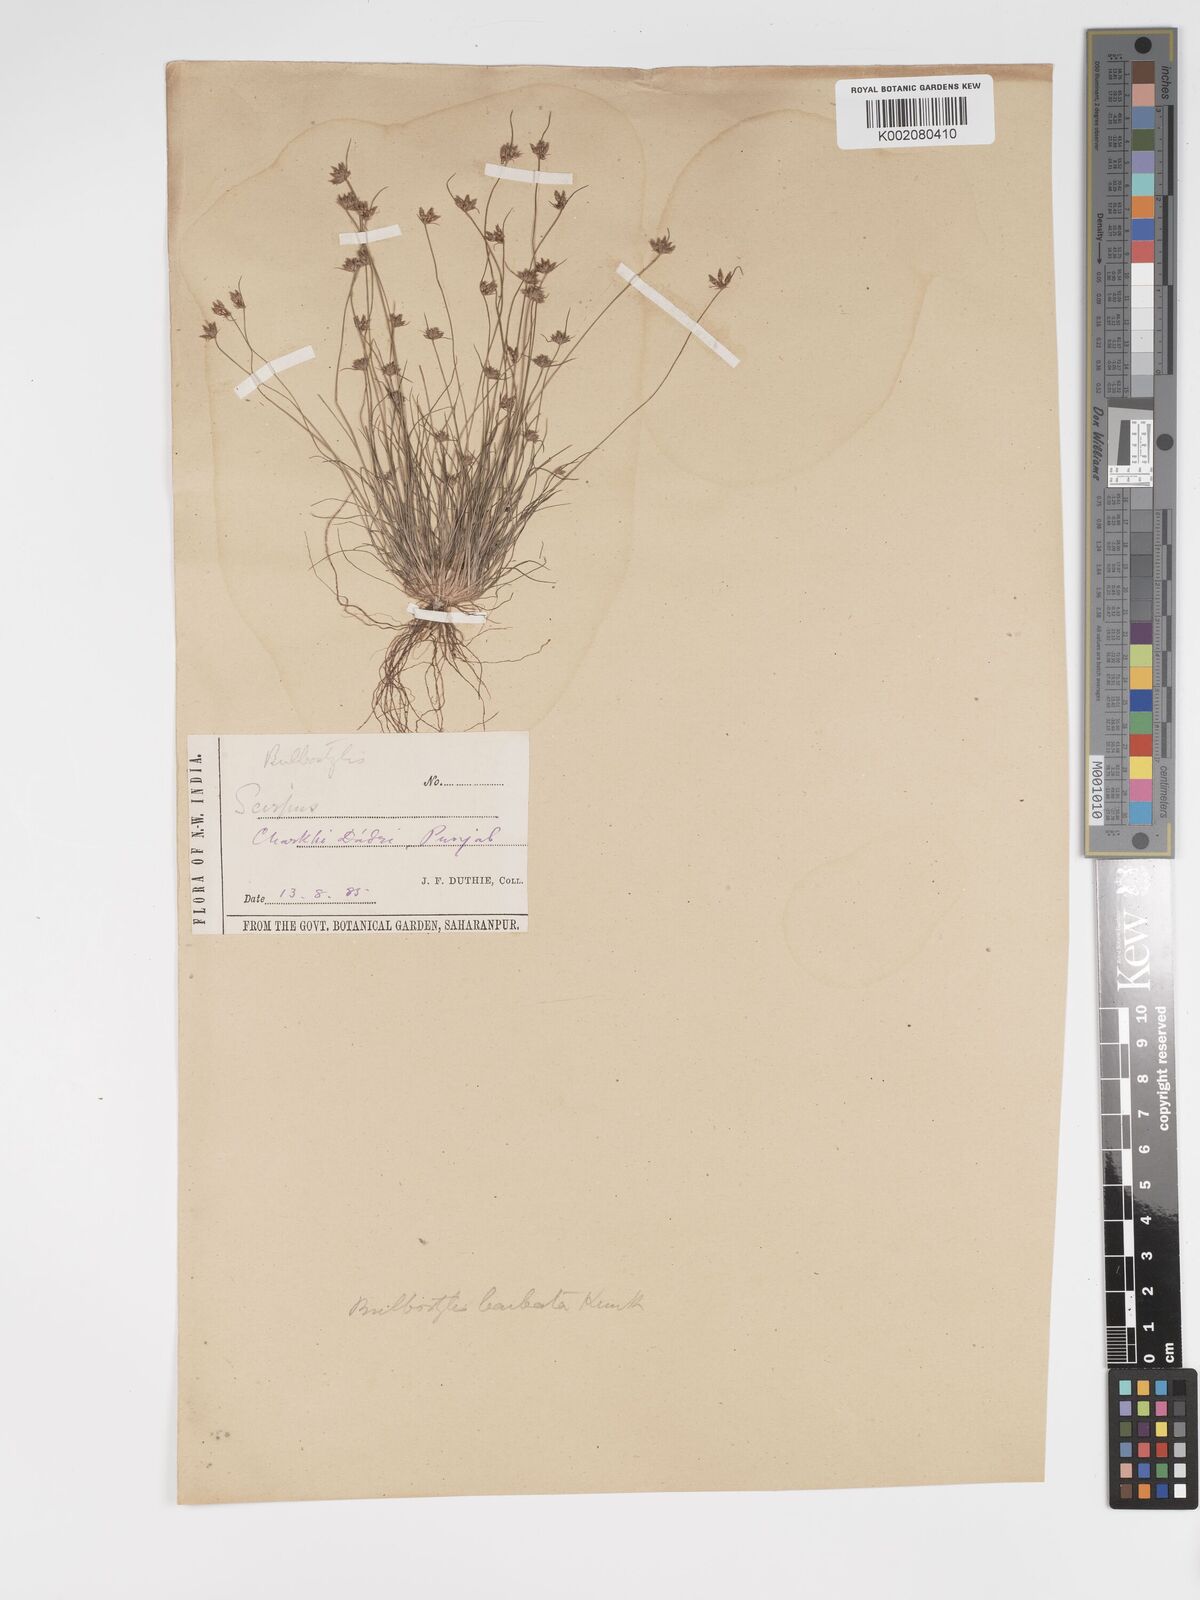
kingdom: Plantae
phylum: Tracheophyta
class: Liliopsida
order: Poales
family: Cyperaceae
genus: Bulbostylis
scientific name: Bulbostylis barbata
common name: Watergrass
